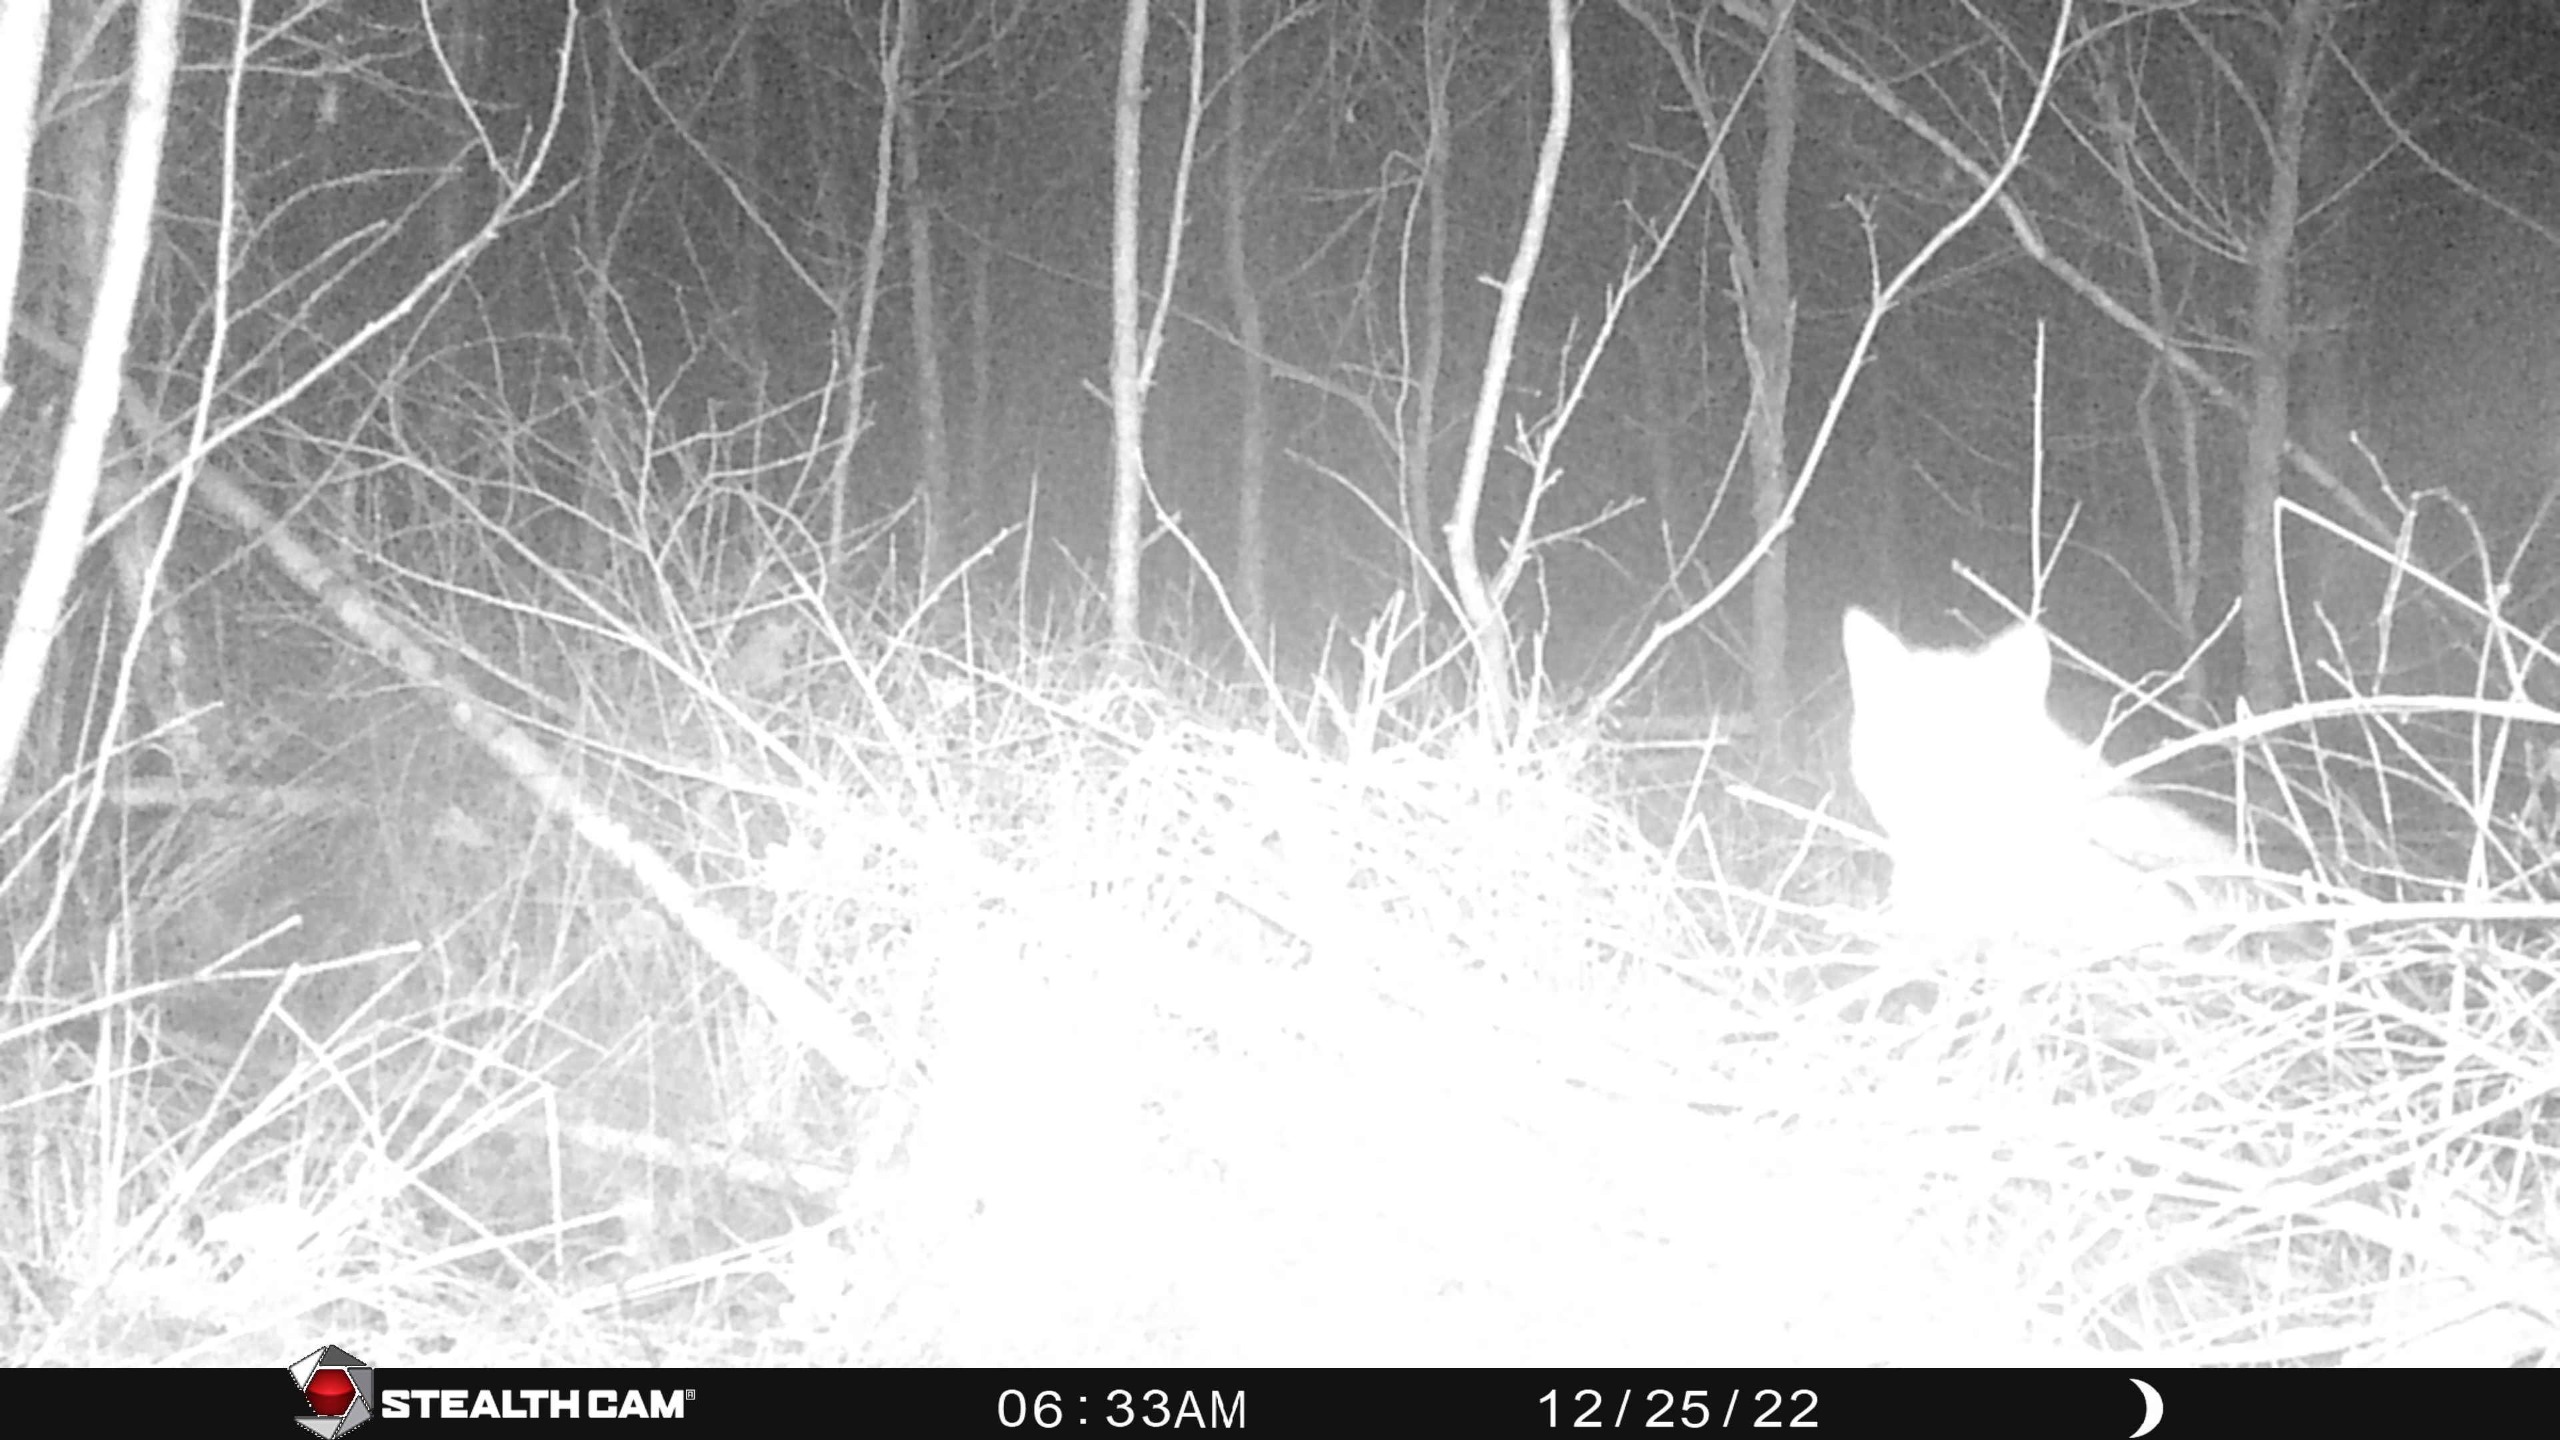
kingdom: Animalia
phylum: Chordata
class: Mammalia
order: Carnivora
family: Canidae
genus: Vulpes
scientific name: Vulpes vulpes
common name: Ræv
